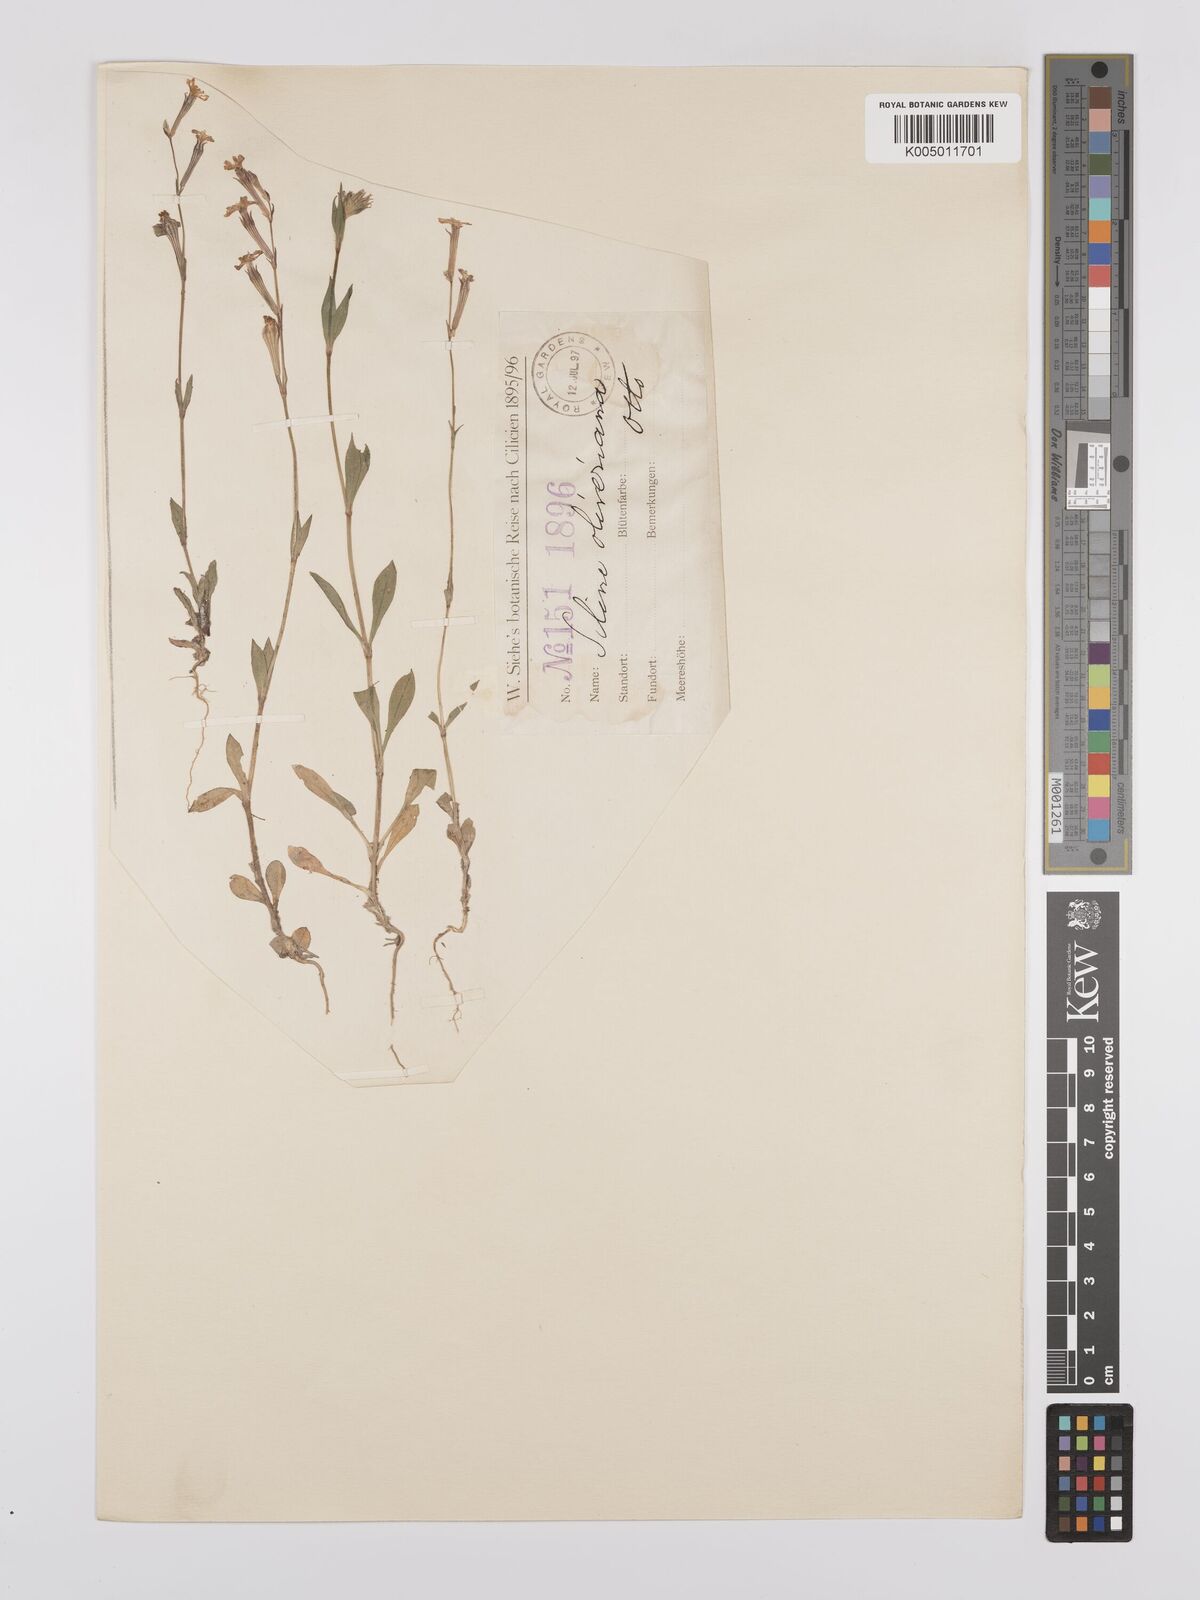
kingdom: Plantae
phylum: Tracheophyta
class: Magnoliopsida
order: Caryophyllales
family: Caryophyllaceae
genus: Silene
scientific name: Silene oliveriana
